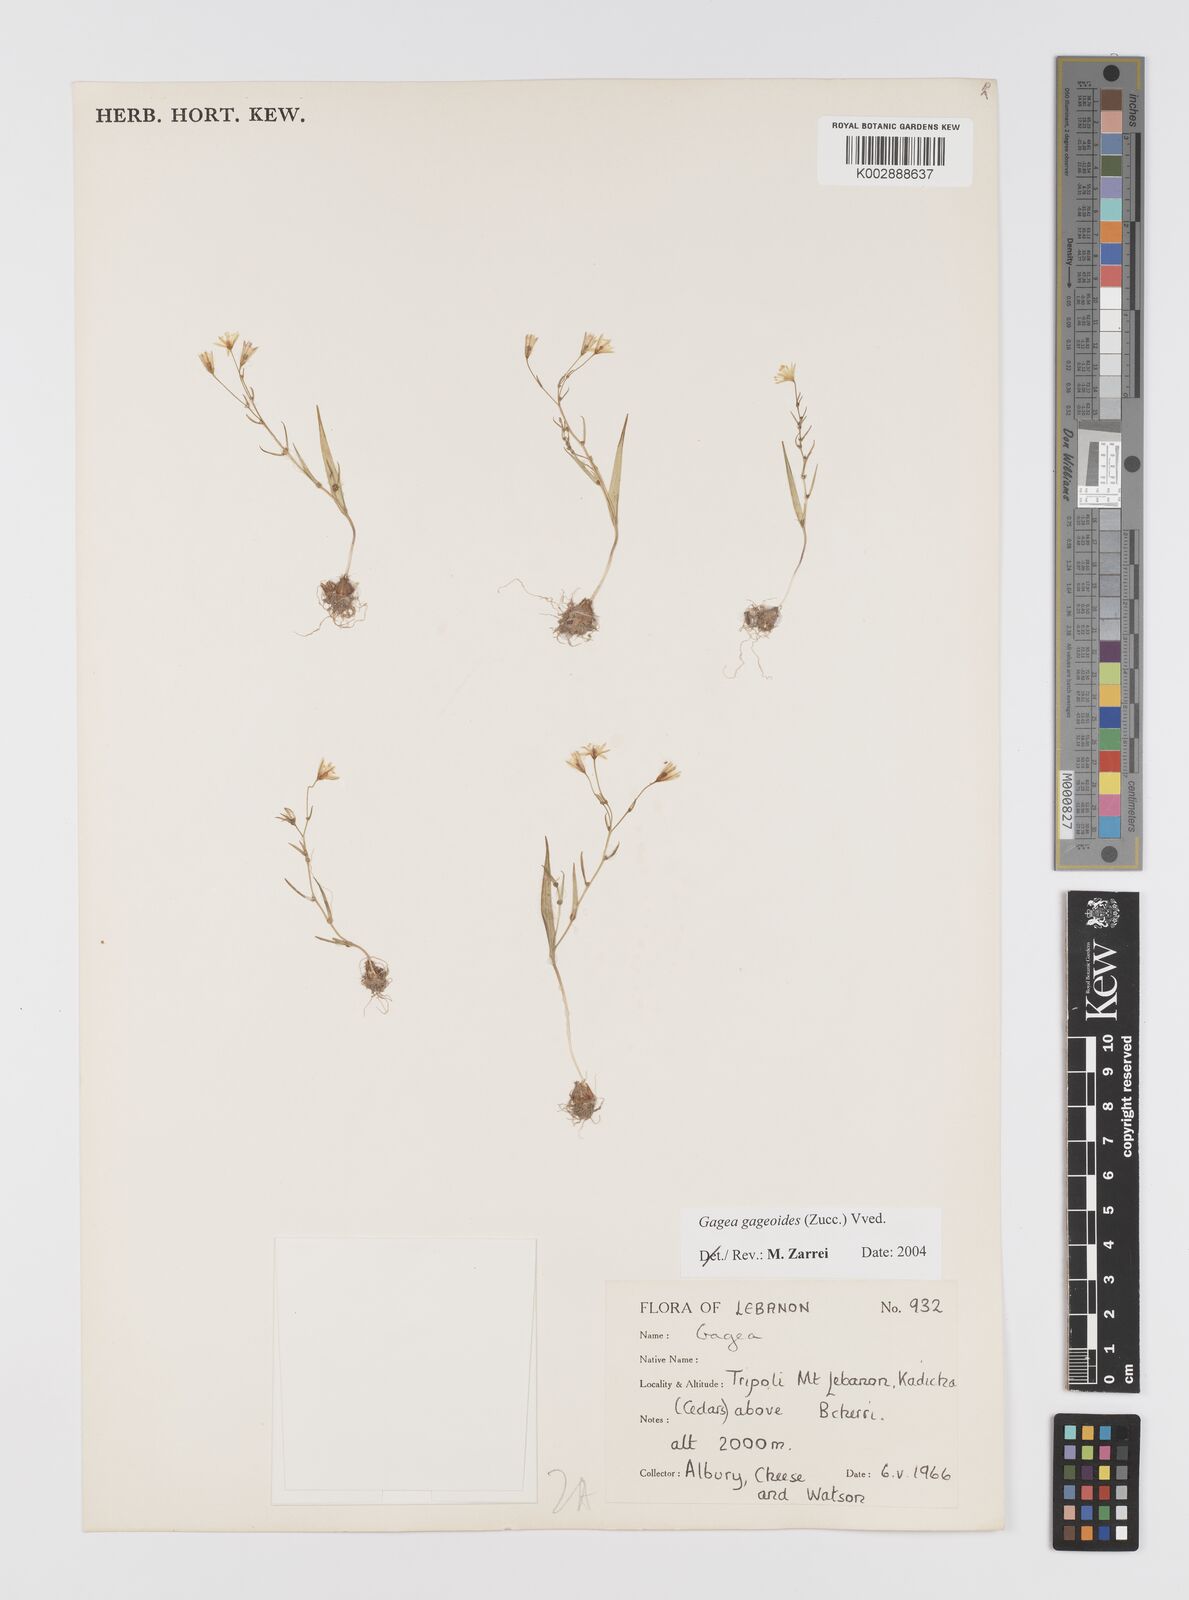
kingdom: Plantae
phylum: Tracheophyta
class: Liliopsida
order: Liliales
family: Liliaceae
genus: Gagea
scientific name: Gagea gageoides
